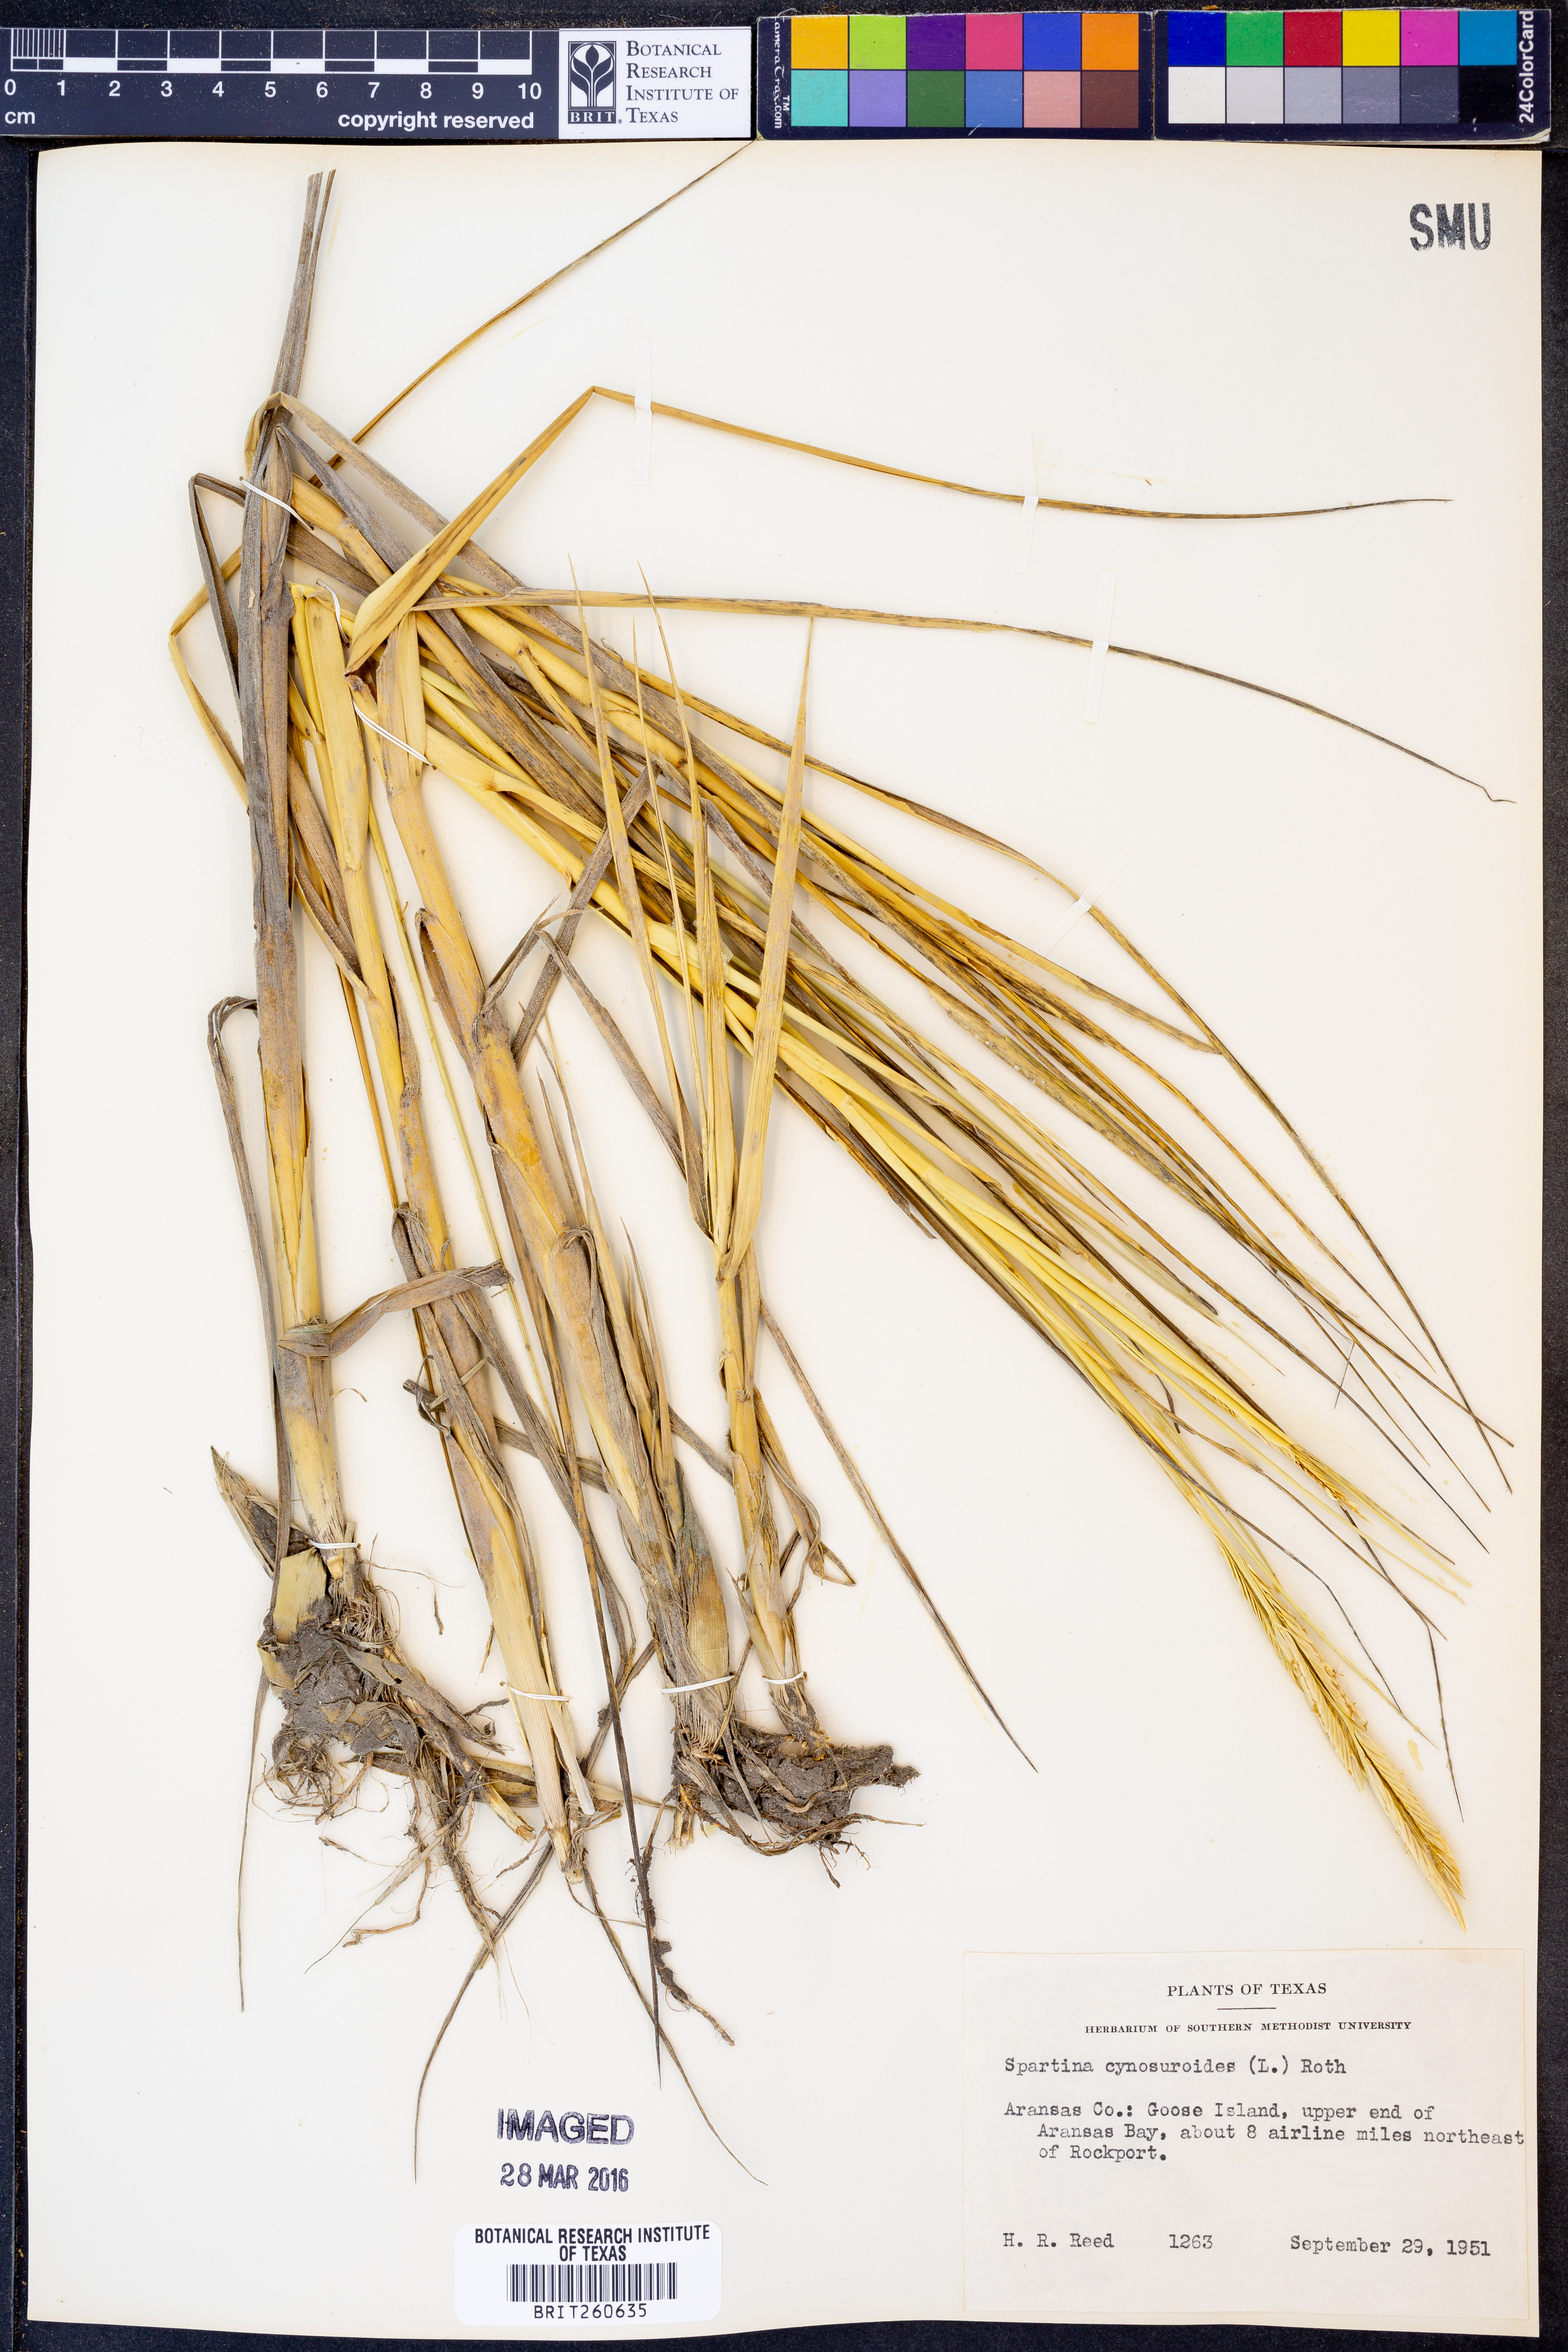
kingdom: Plantae
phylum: Tracheophyta
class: Liliopsida
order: Poales
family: Poaceae
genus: Sporobolus
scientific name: Sporobolus cynosuroides
